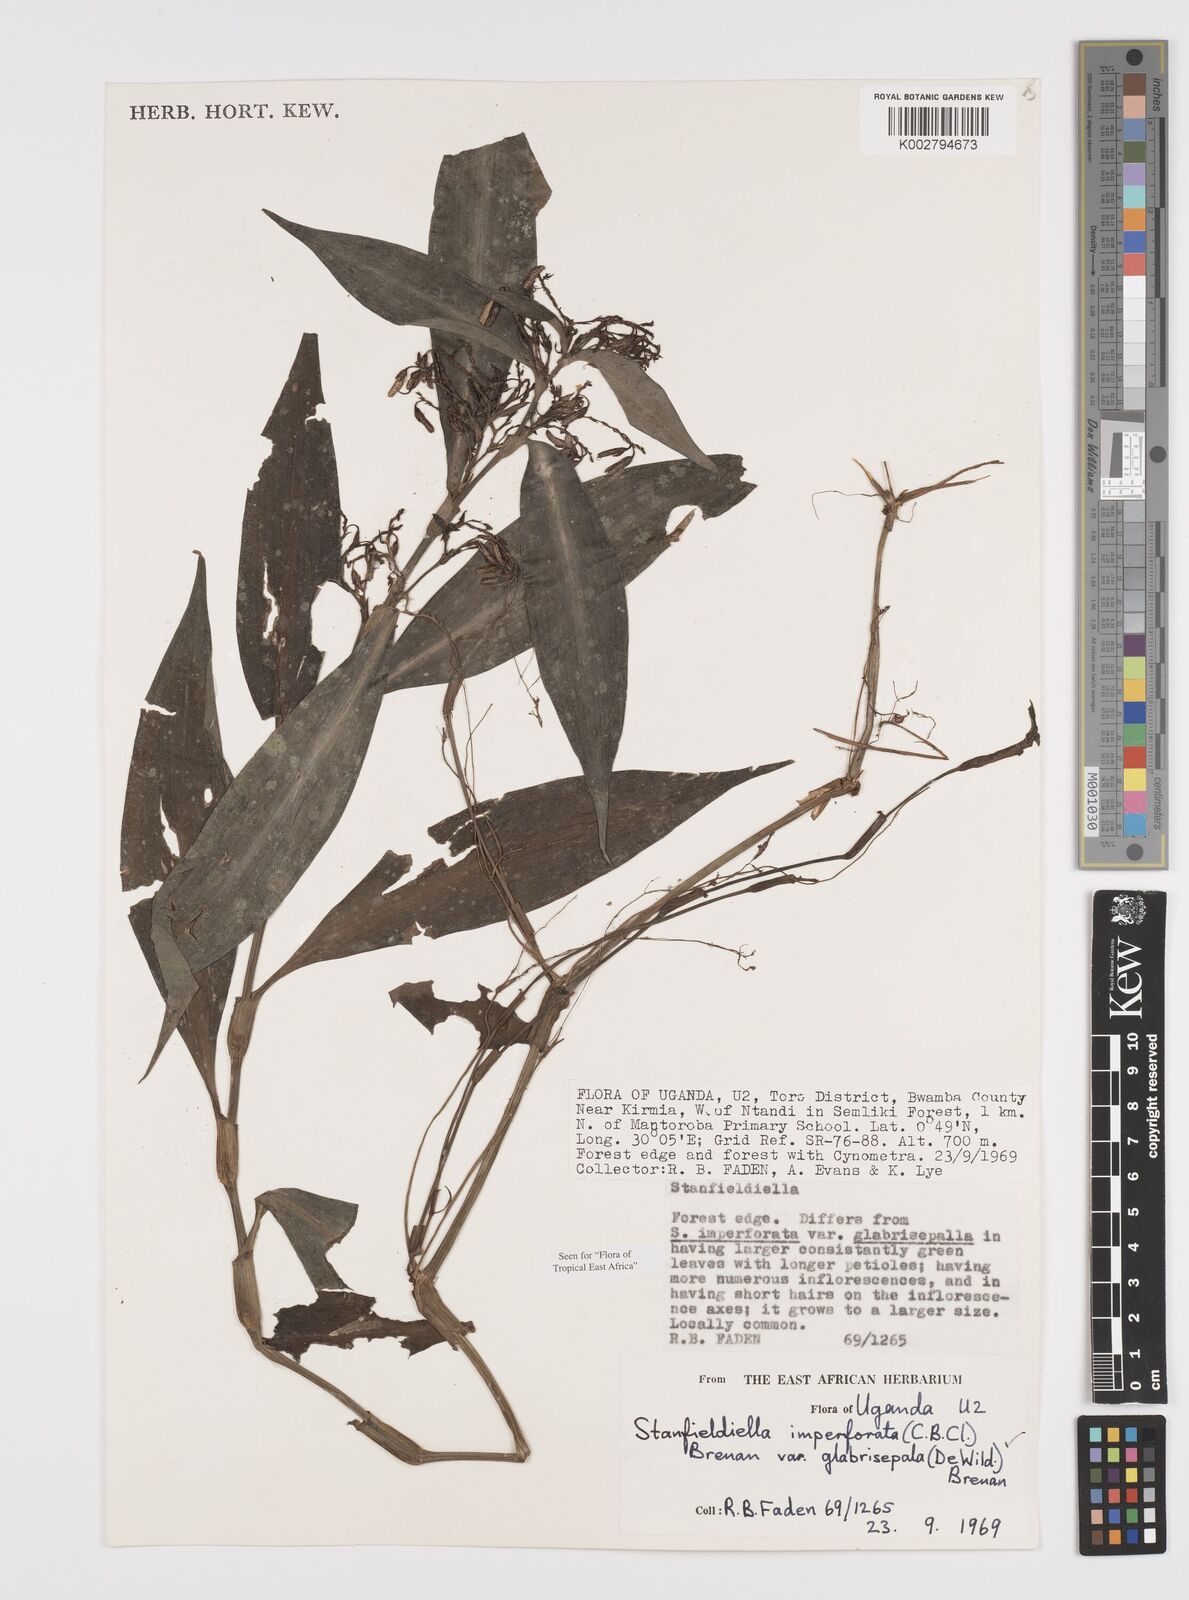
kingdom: Plantae
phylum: Tracheophyta
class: Liliopsida
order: Commelinales
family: Commelinaceae
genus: Stanfieldiella
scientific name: Stanfieldiella imperforata
